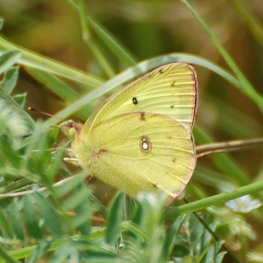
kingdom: Animalia
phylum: Arthropoda
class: Insecta
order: Lepidoptera
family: Pieridae
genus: Colias
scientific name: Colias philodice
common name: Clouded Sulphur
